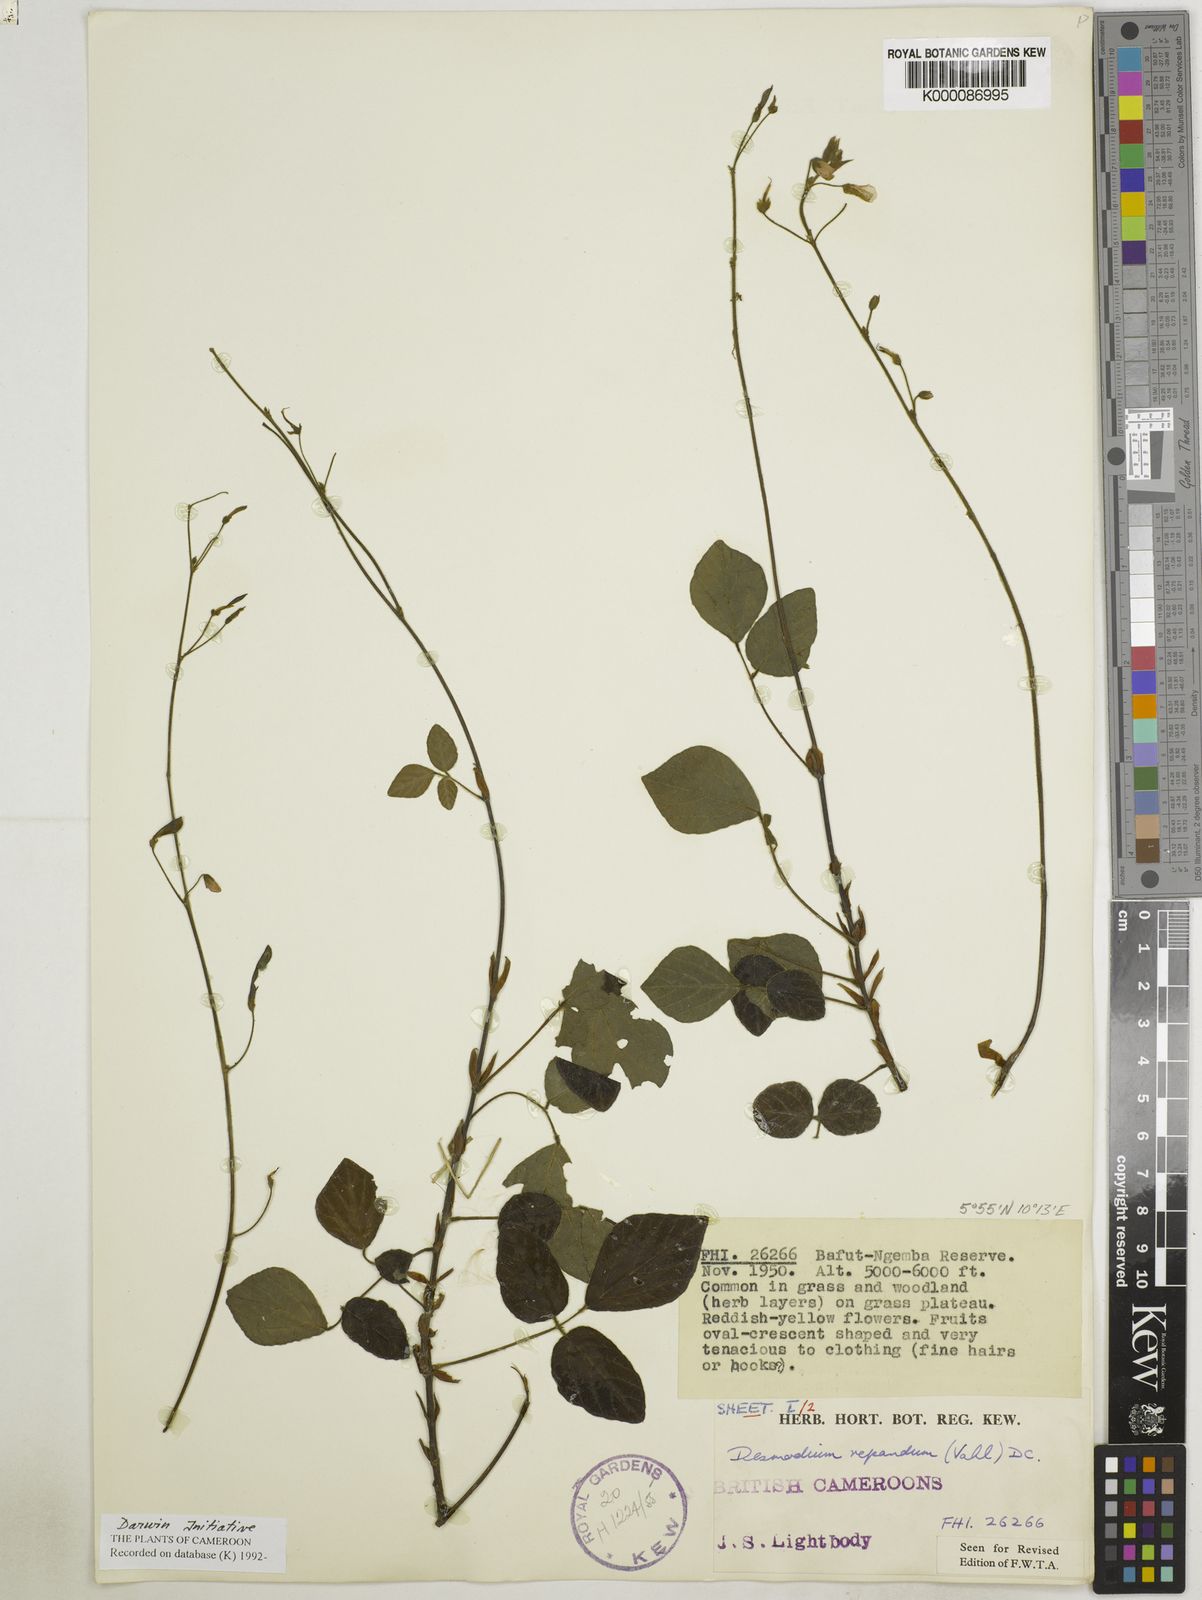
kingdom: Plantae
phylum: Tracheophyta
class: Magnoliopsida
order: Fabales
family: Fabaceae
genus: Desmodium
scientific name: Desmodium
